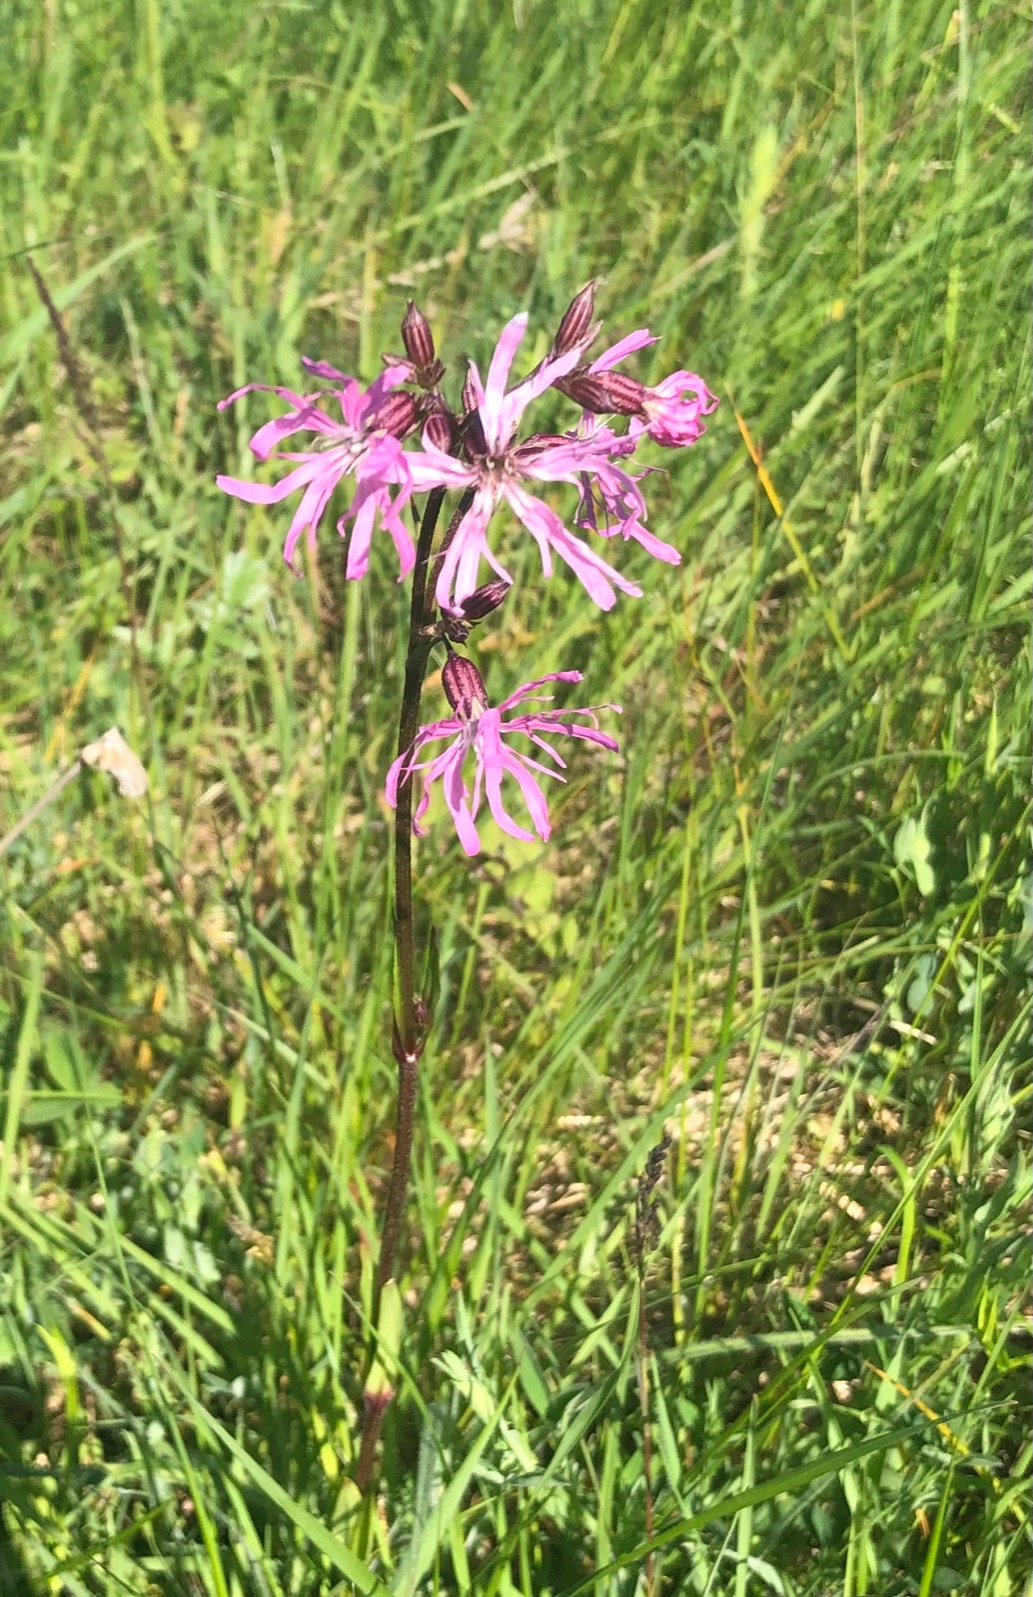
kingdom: Plantae
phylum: Tracheophyta
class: Magnoliopsida
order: Caryophyllales
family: Caryophyllaceae
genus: Silene
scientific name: Silene flos-cuculi
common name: Trævlekrone
